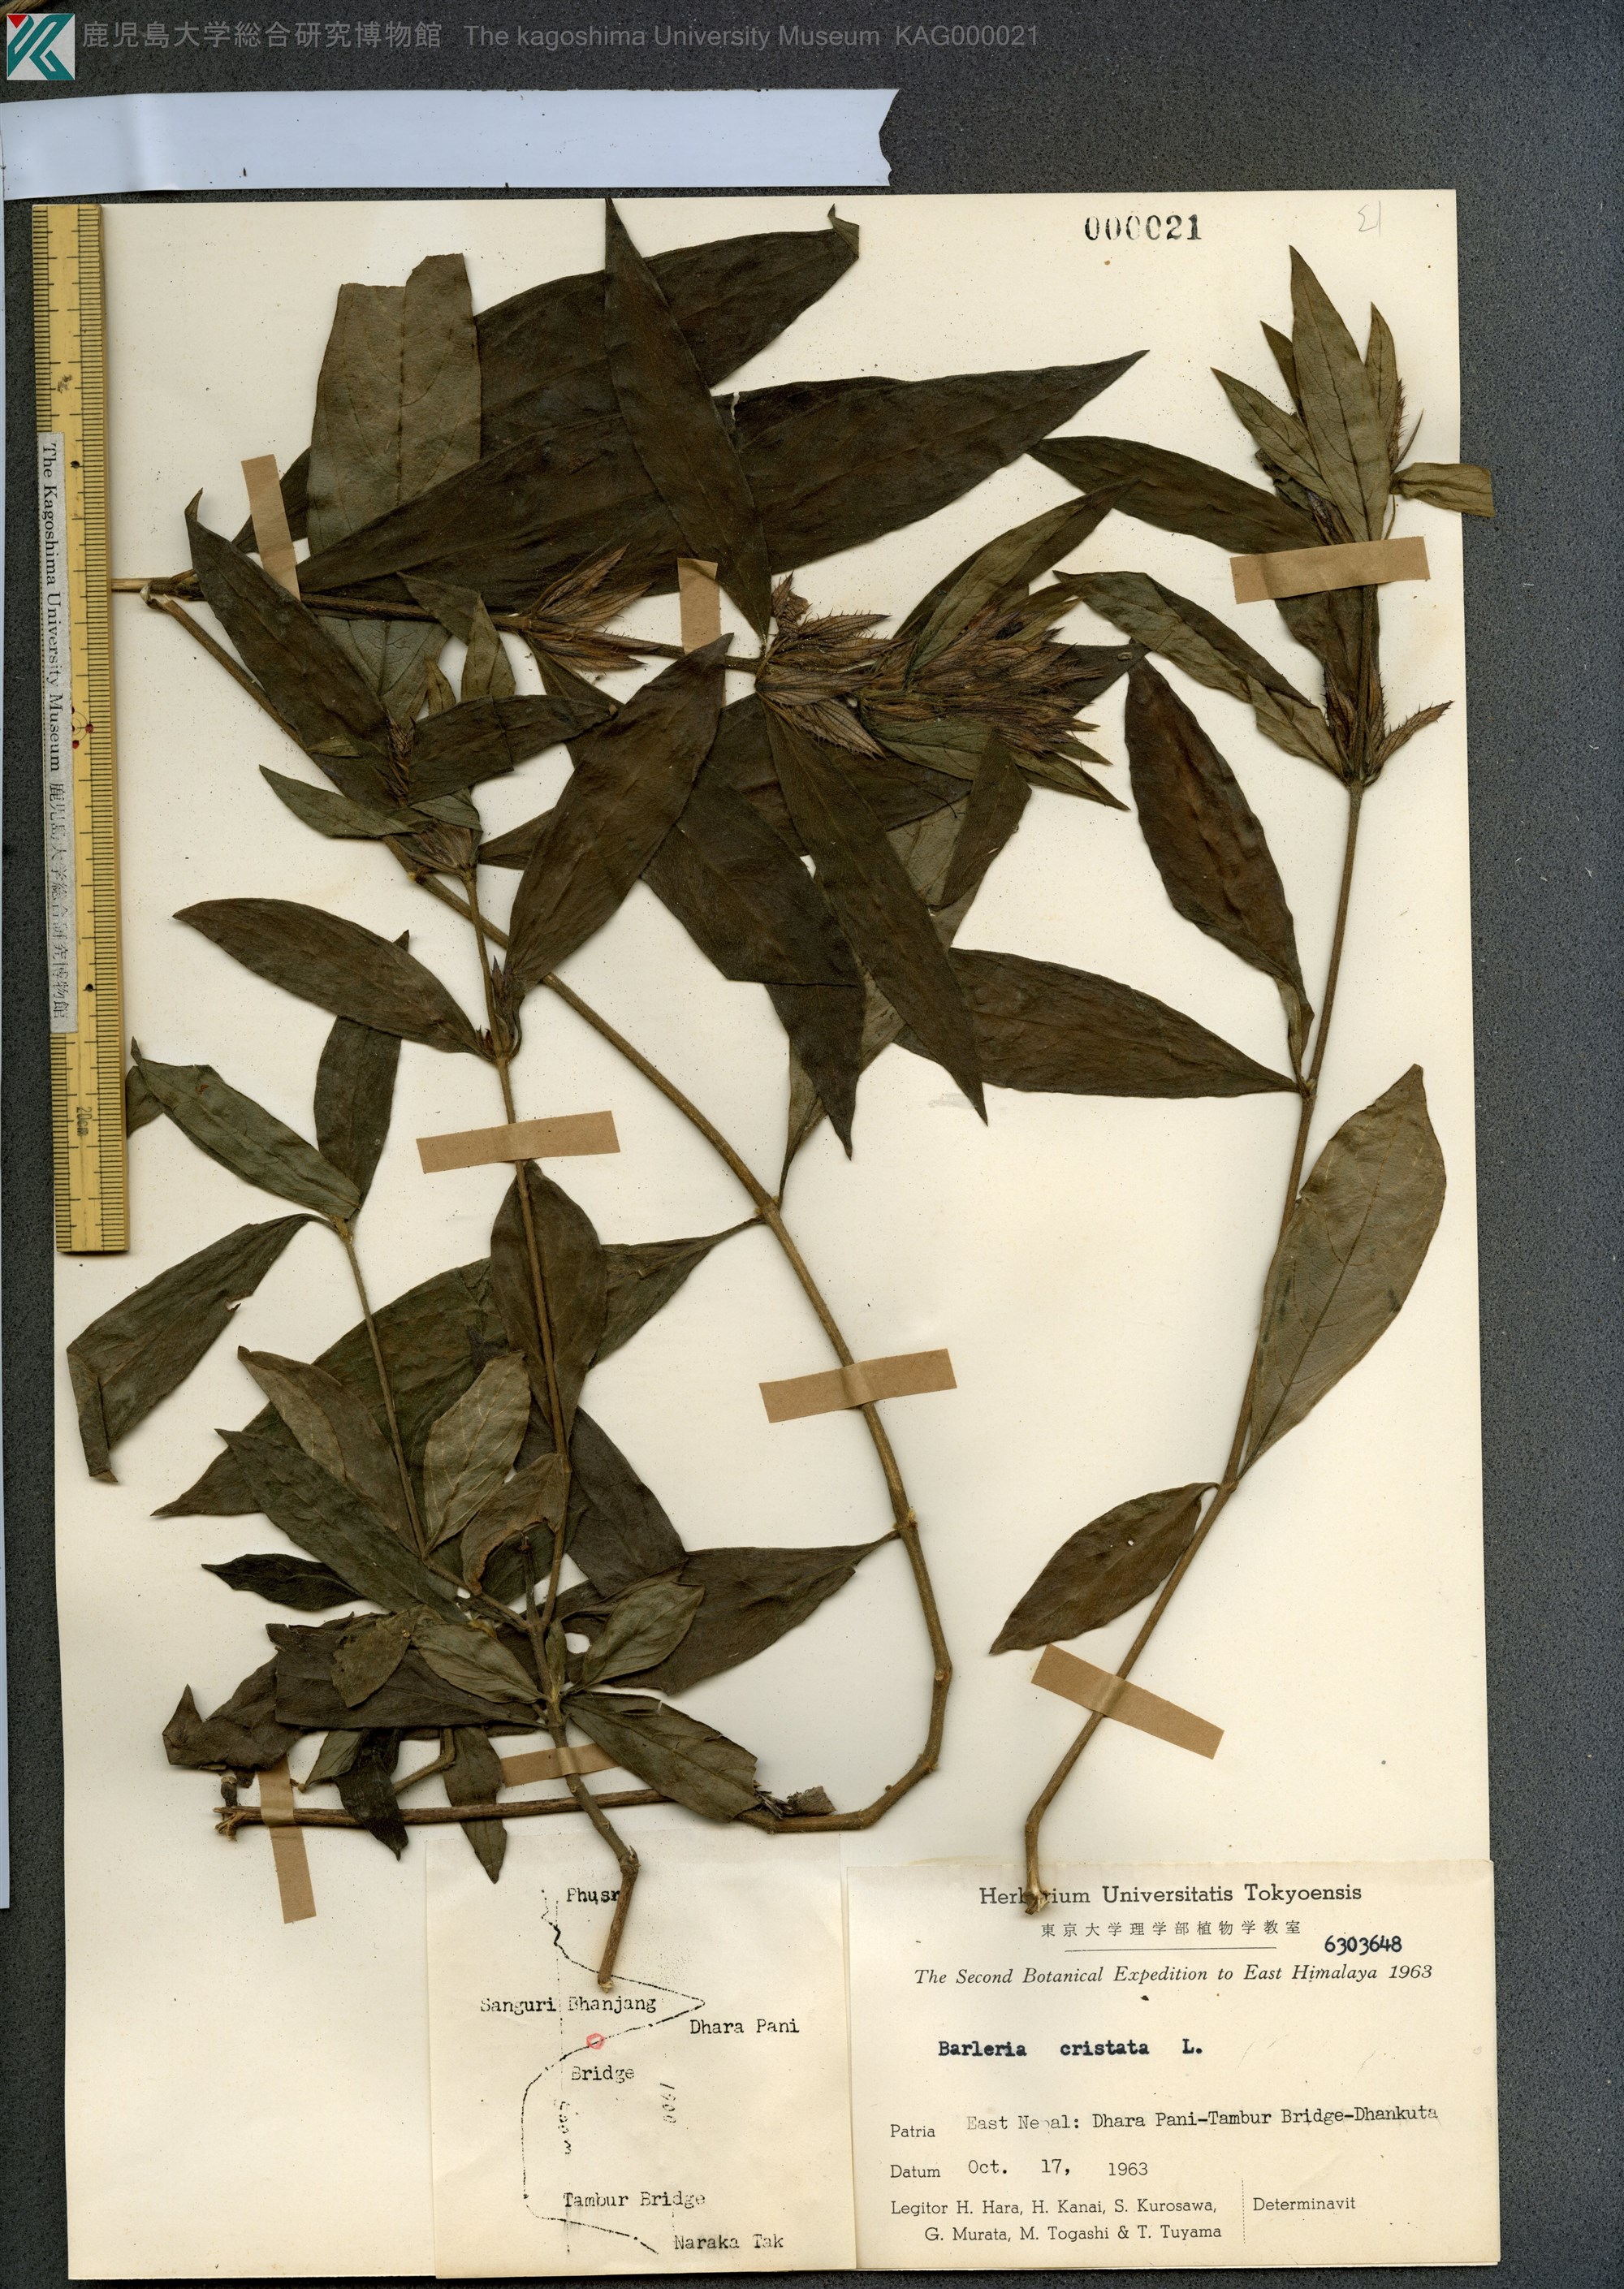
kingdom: Plantae
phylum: Tracheophyta
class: Magnoliopsida
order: Lamiales
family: Acanthaceae
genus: Barleria
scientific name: Barleria cristata
